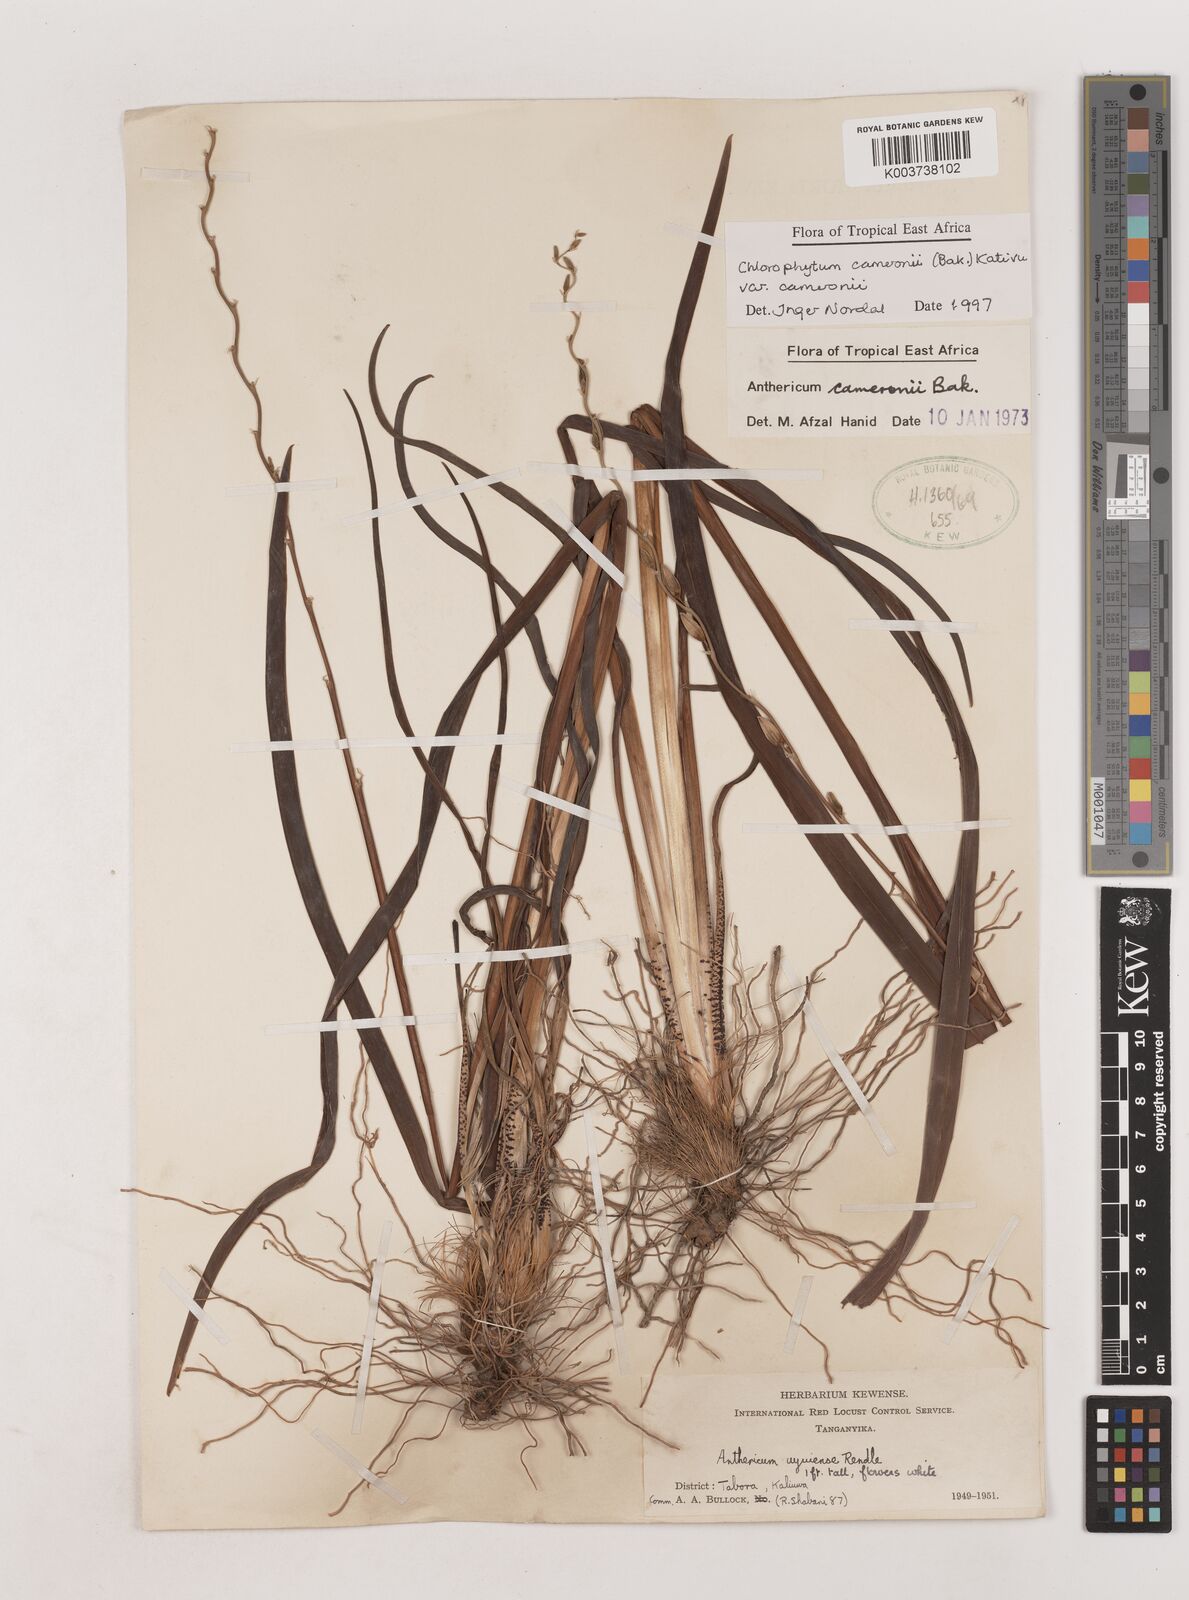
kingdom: Plantae
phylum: Tracheophyta
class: Liliopsida
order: Asparagales
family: Asparagaceae
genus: Chlorophytum
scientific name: Chlorophytum cameronii
